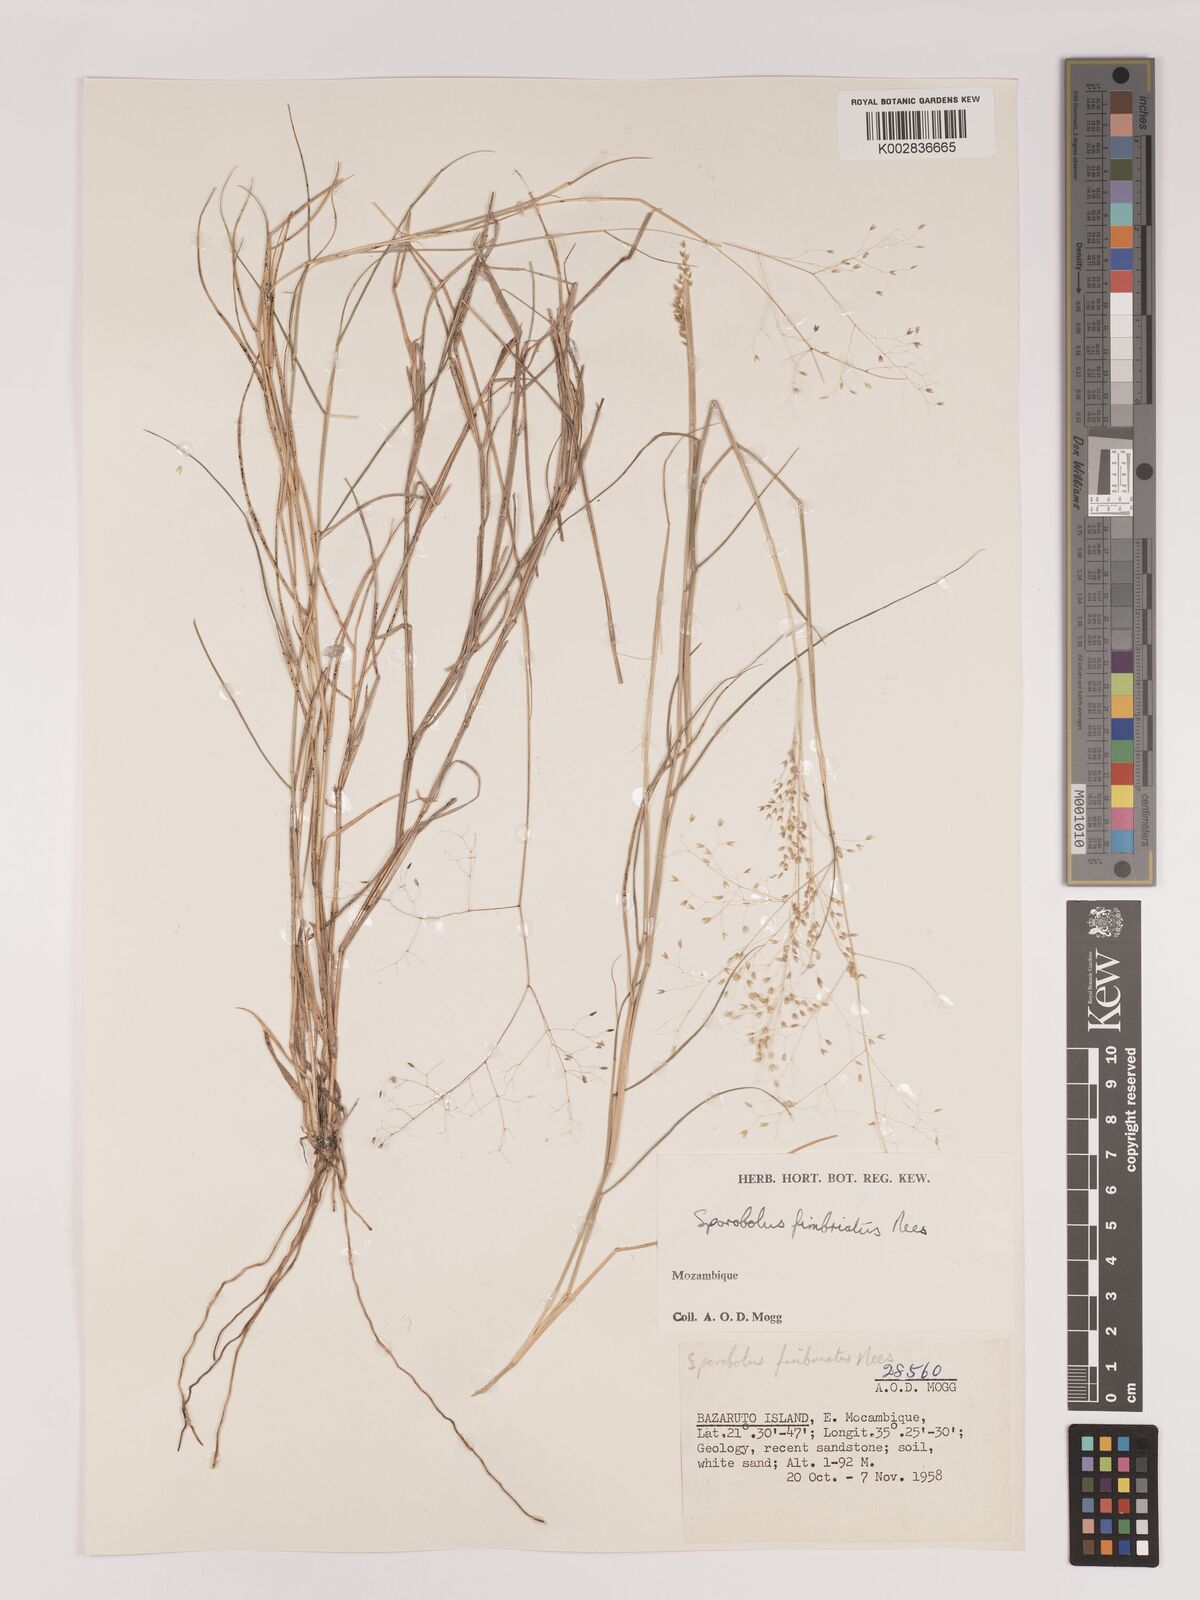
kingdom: Plantae
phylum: Tracheophyta
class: Liliopsida
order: Poales
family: Poaceae
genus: Tricholaena
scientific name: Tricholaena monachne
